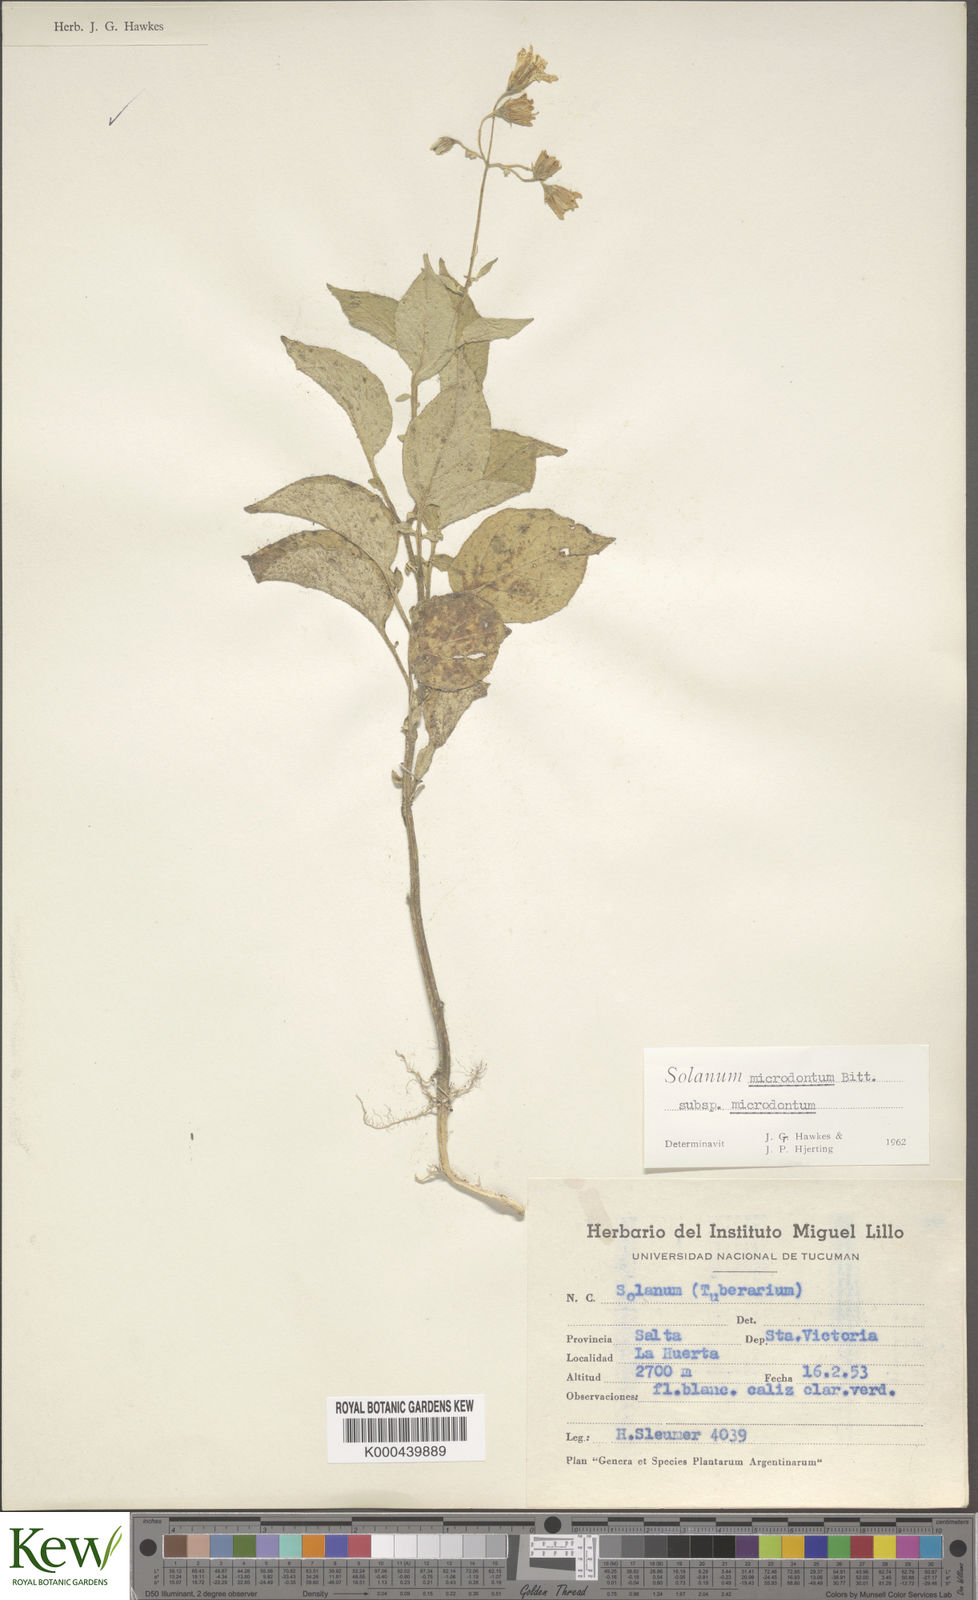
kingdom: Plantae
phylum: Tracheophyta
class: Magnoliopsida
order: Solanales
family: Solanaceae
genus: Solanum
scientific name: Solanum microdontum
